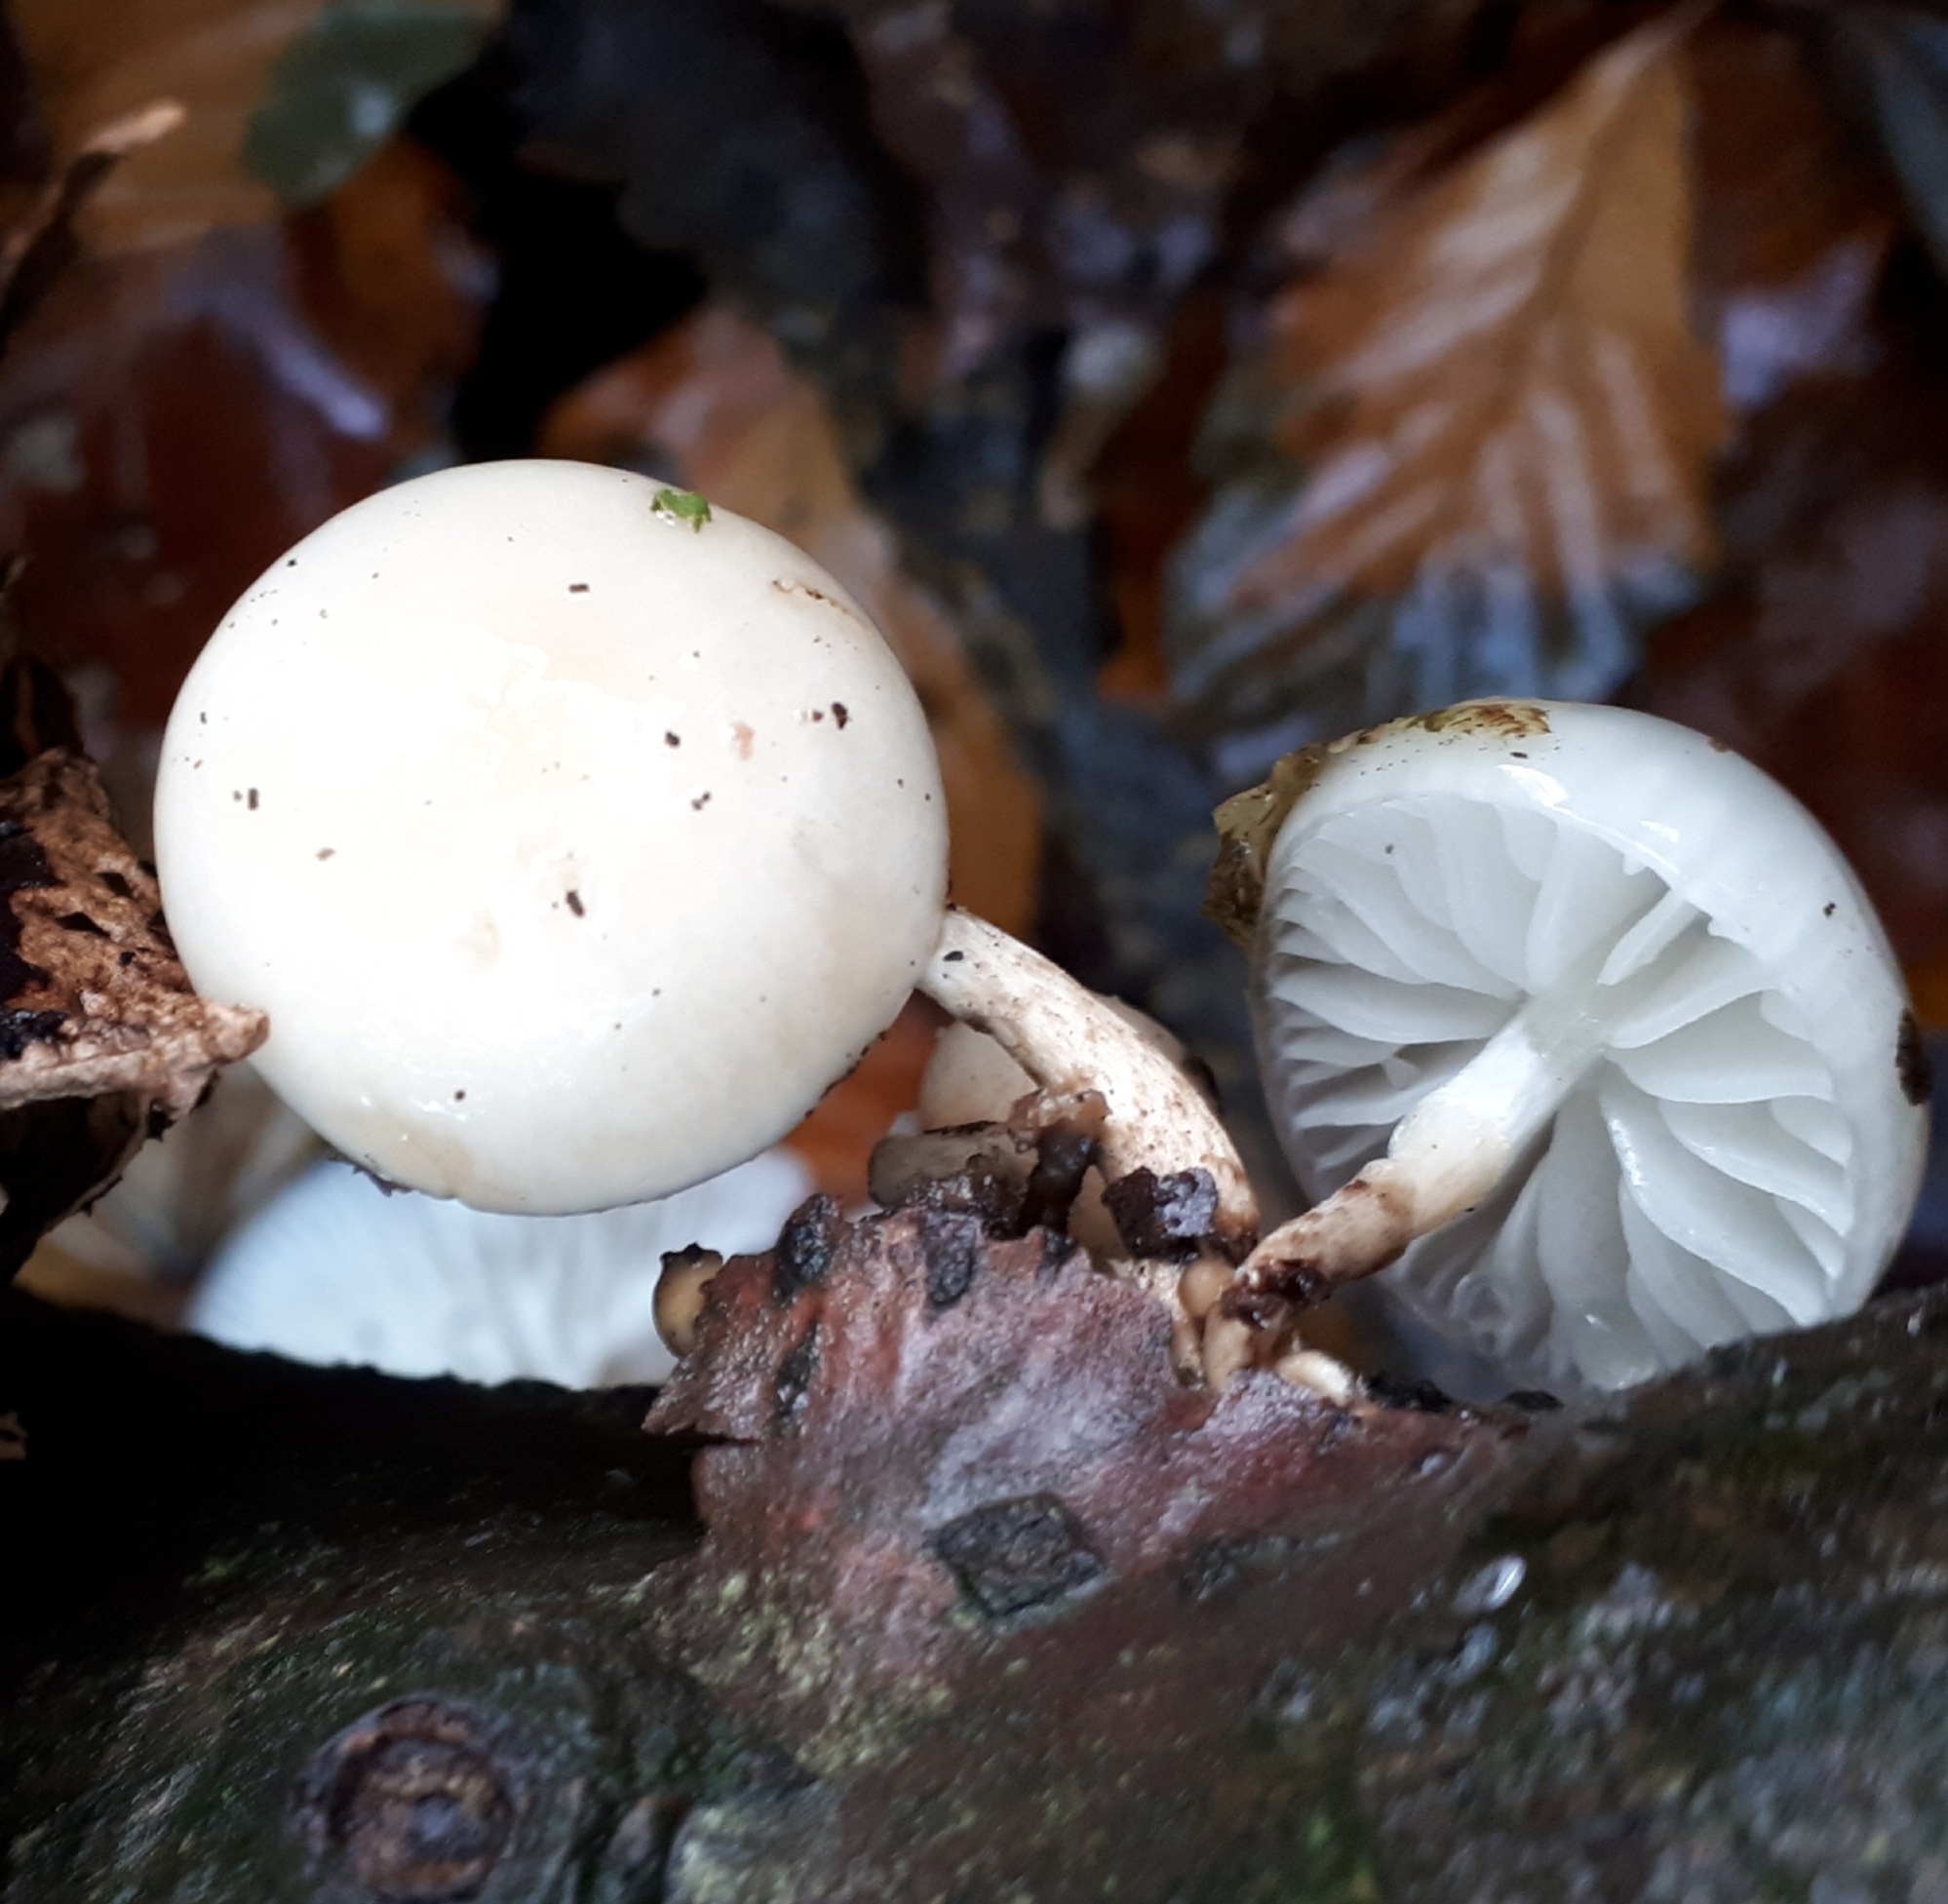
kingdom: Fungi
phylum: Basidiomycota
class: Agaricomycetes
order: Agaricales
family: Physalacriaceae
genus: Mucidula
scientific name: Mucidula mucida
